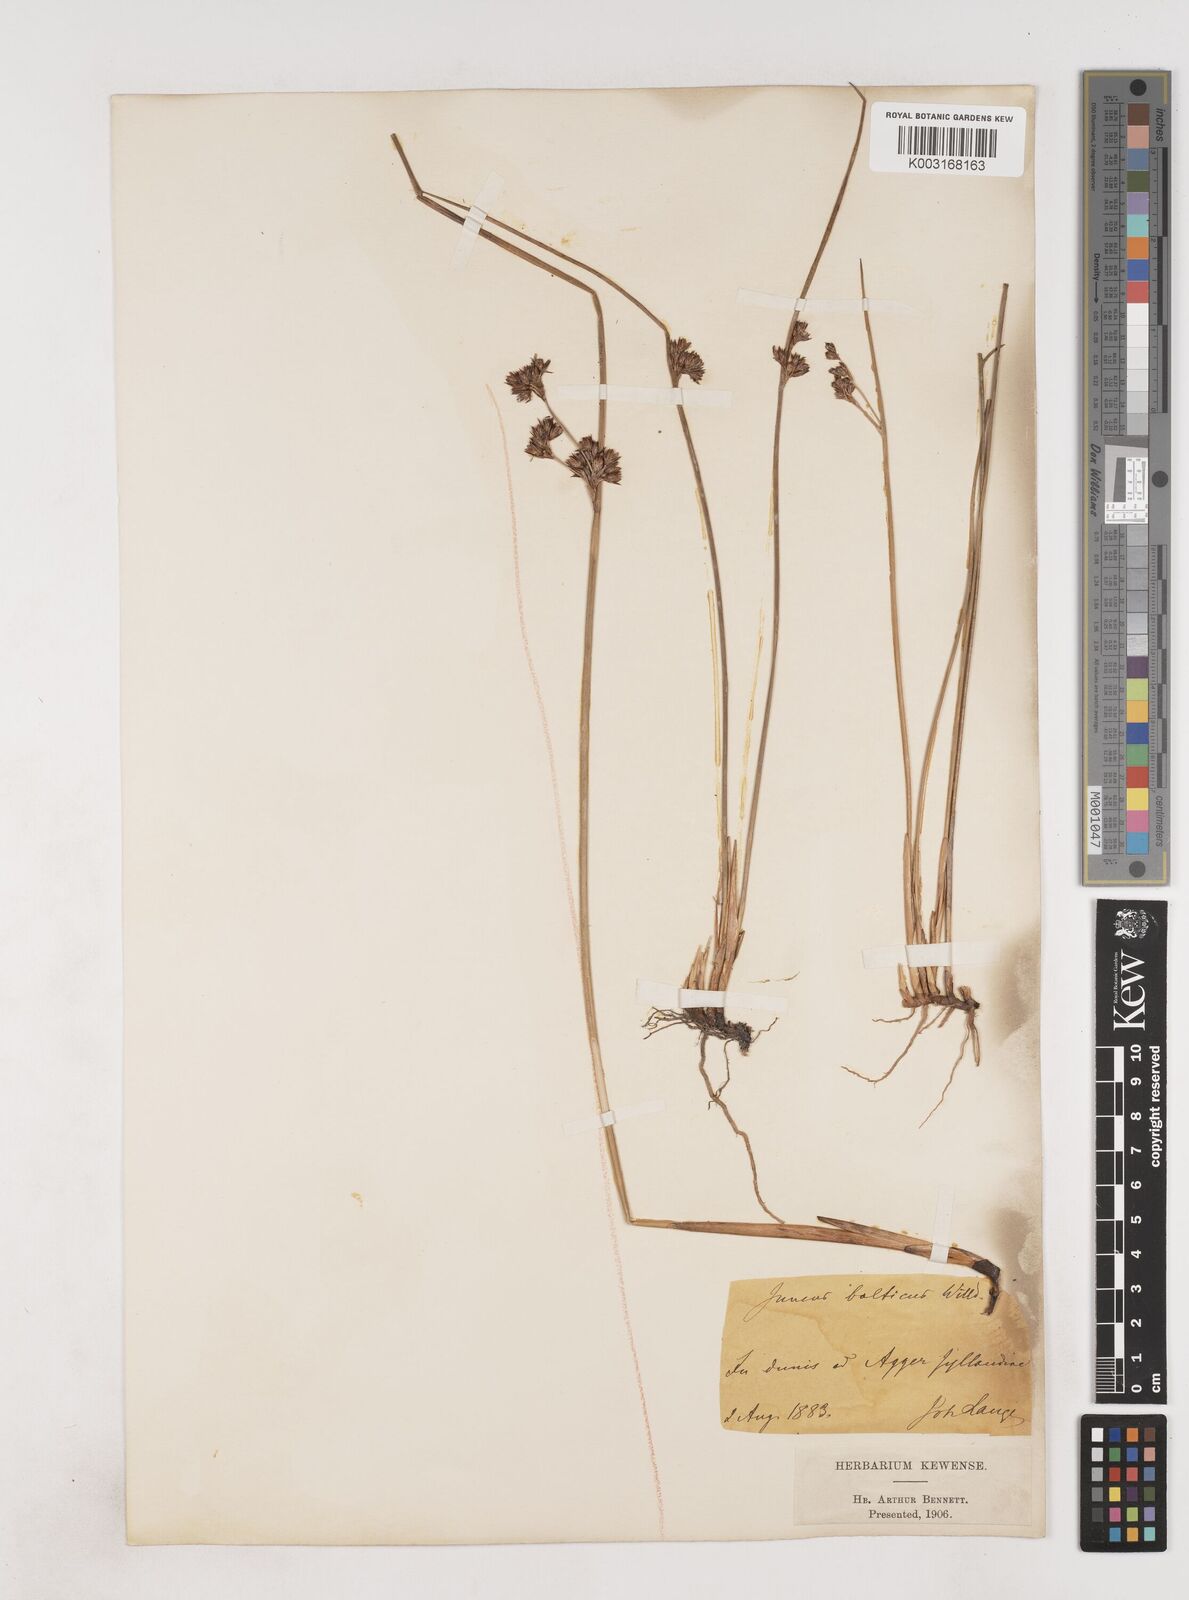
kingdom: Plantae
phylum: Tracheophyta
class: Liliopsida
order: Poales
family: Juncaceae
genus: Juncus
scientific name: Juncus balticus
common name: Baltic rush
